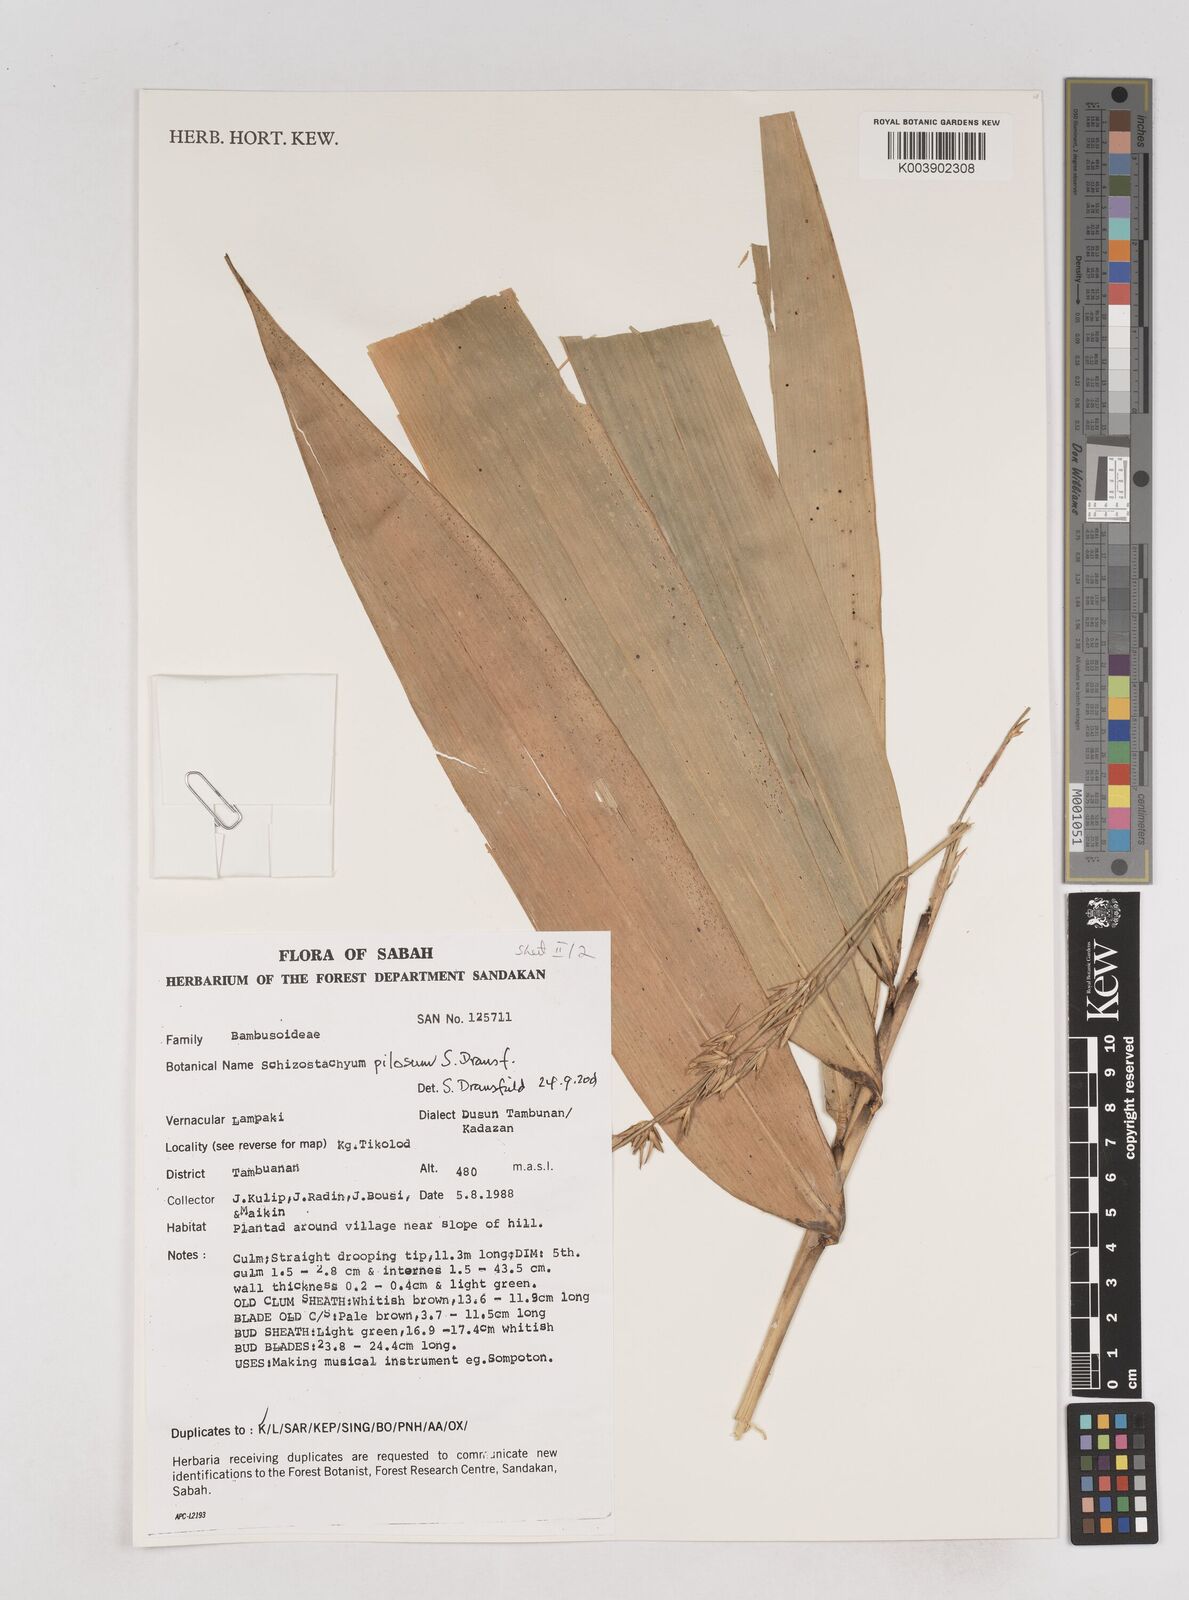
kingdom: Plantae
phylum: Tracheophyta
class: Liliopsida
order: Poales
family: Poaceae
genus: Schizostachyum
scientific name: Schizostachyum pilosum
